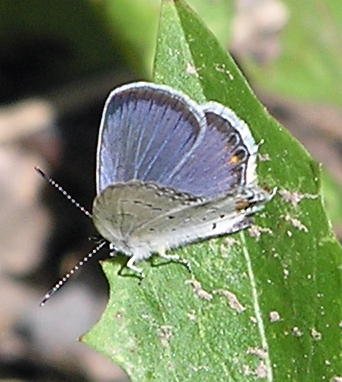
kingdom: Animalia
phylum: Arthropoda
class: Insecta
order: Lepidoptera
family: Lycaenidae
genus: Elkalyce
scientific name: Elkalyce comyntas
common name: Eastern Tailed-Blue
